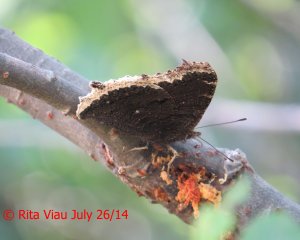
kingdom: Animalia
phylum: Arthropoda
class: Insecta
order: Lepidoptera
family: Nymphalidae
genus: Nymphalis
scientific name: Nymphalis antiopa
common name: Mourning Cloak
